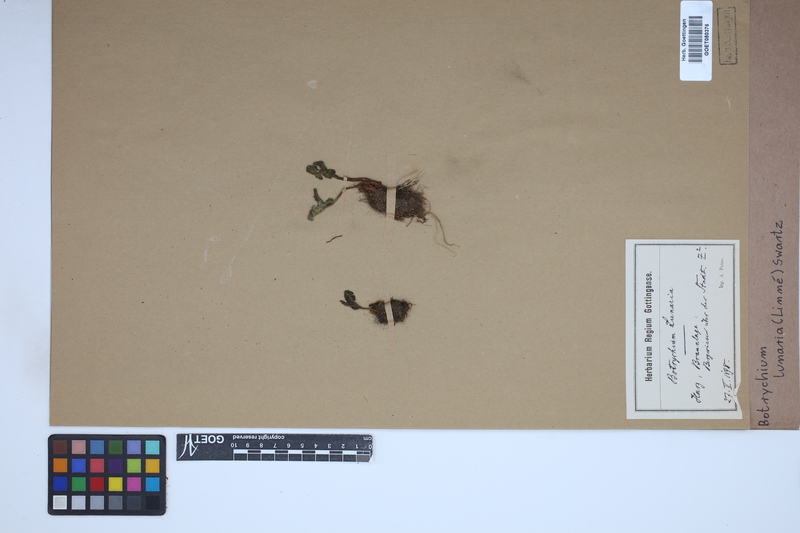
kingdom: Plantae
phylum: Tracheophyta
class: Polypodiopsida
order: Ophioglossales
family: Ophioglossaceae
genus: Botrychium
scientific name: Botrychium lunaria
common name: Moonwort
